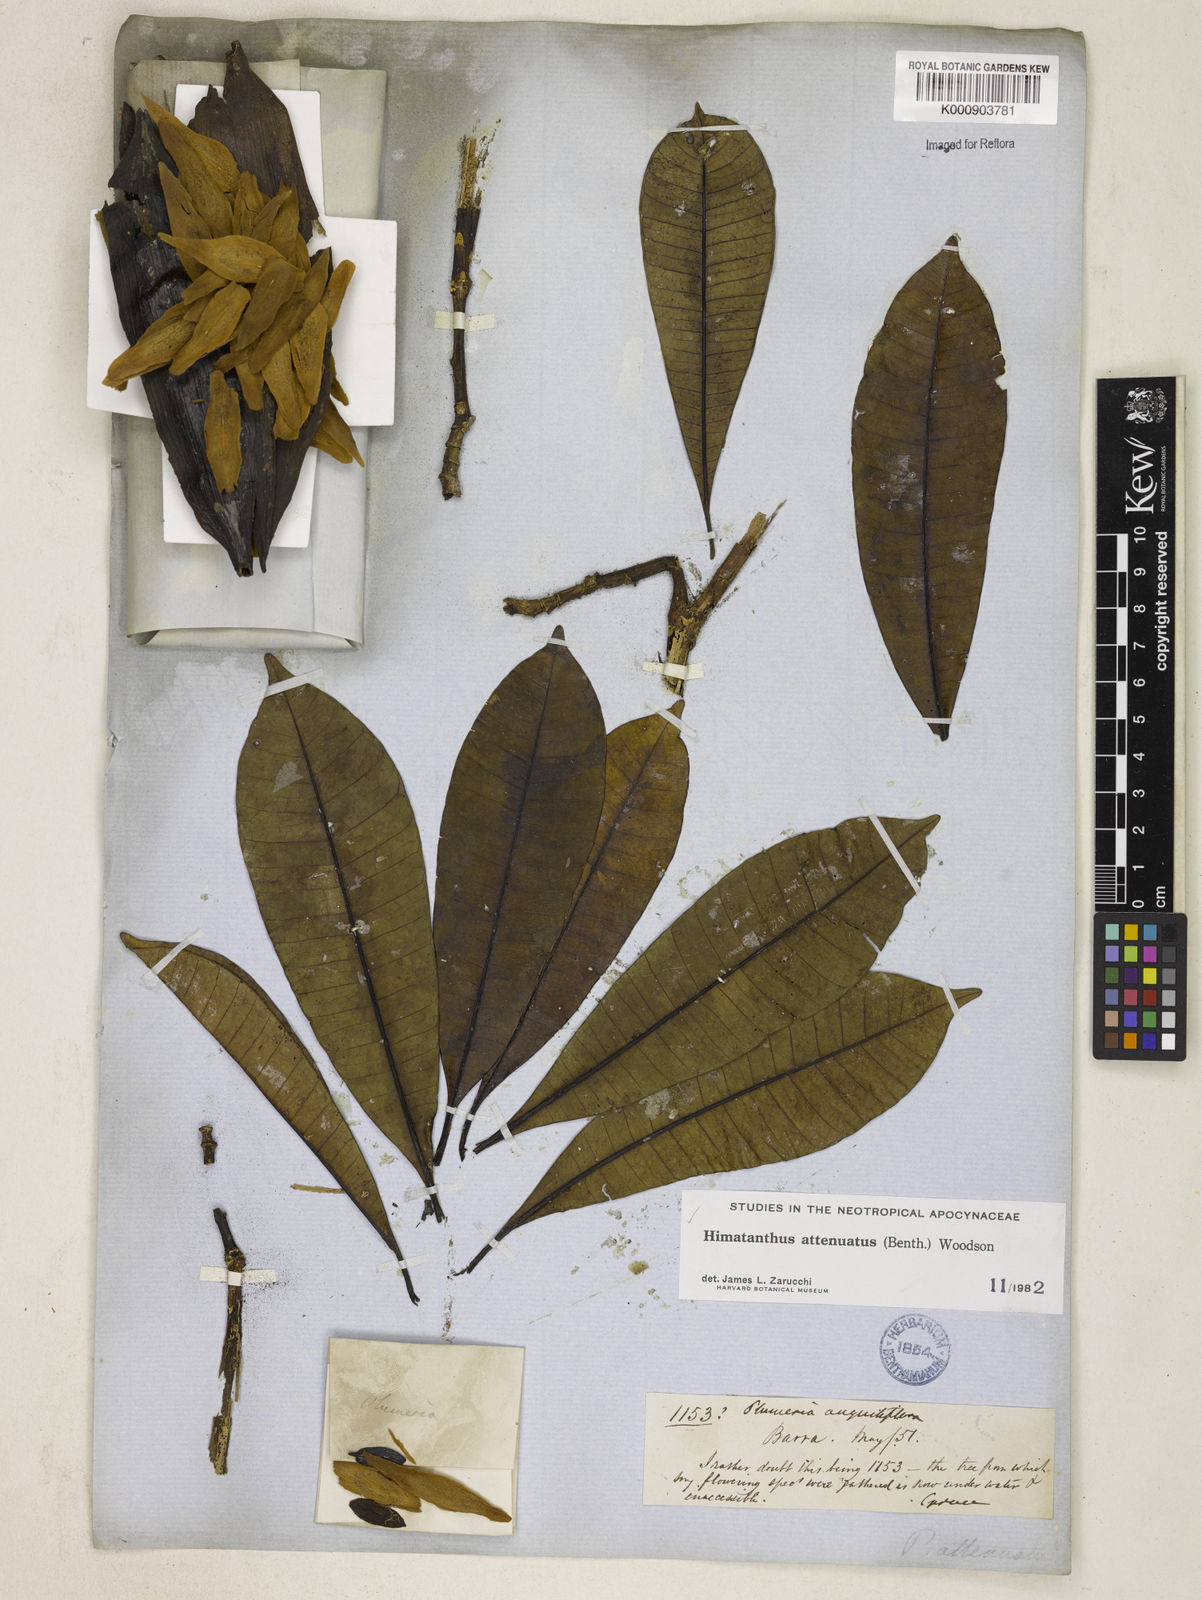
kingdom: Plantae
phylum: Tracheophyta
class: Magnoliopsida
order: Gentianales
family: Apocynaceae
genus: Himatanthus
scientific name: Himatanthus attenuatus
